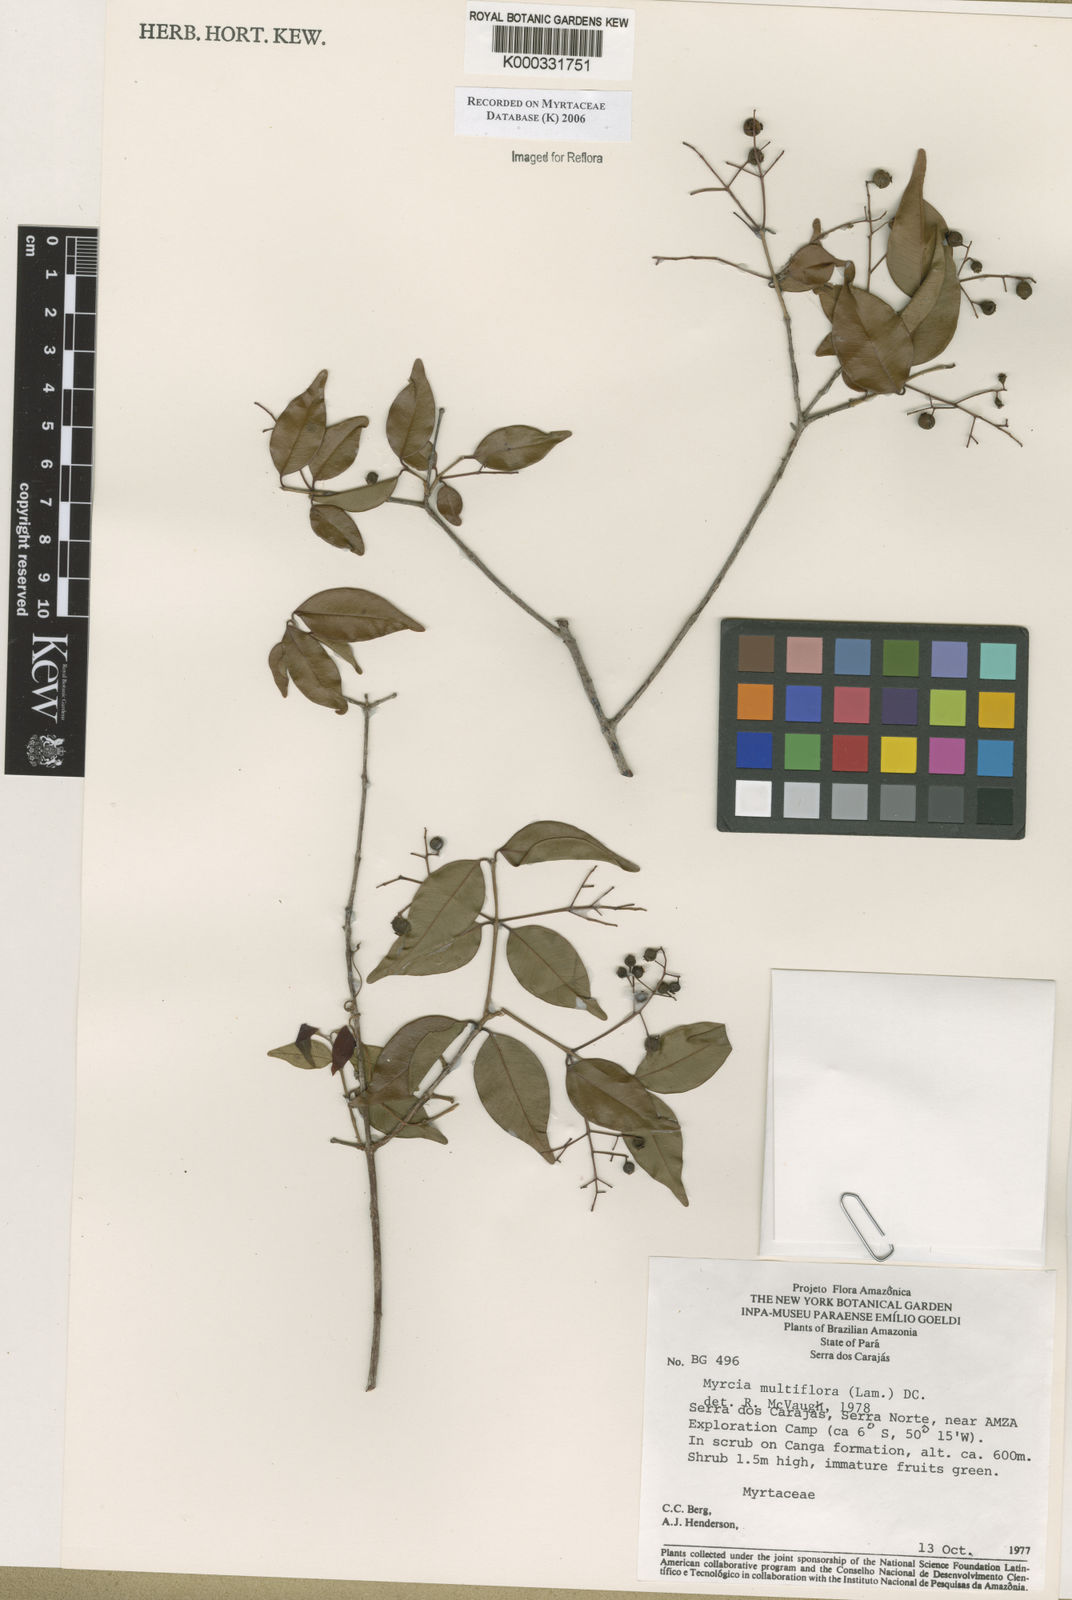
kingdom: Plantae
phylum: Tracheophyta
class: Magnoliopsida
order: Myrtales
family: Myrtaceae
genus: Myrcia
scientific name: Myrcia multiflora
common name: Pedra hume
